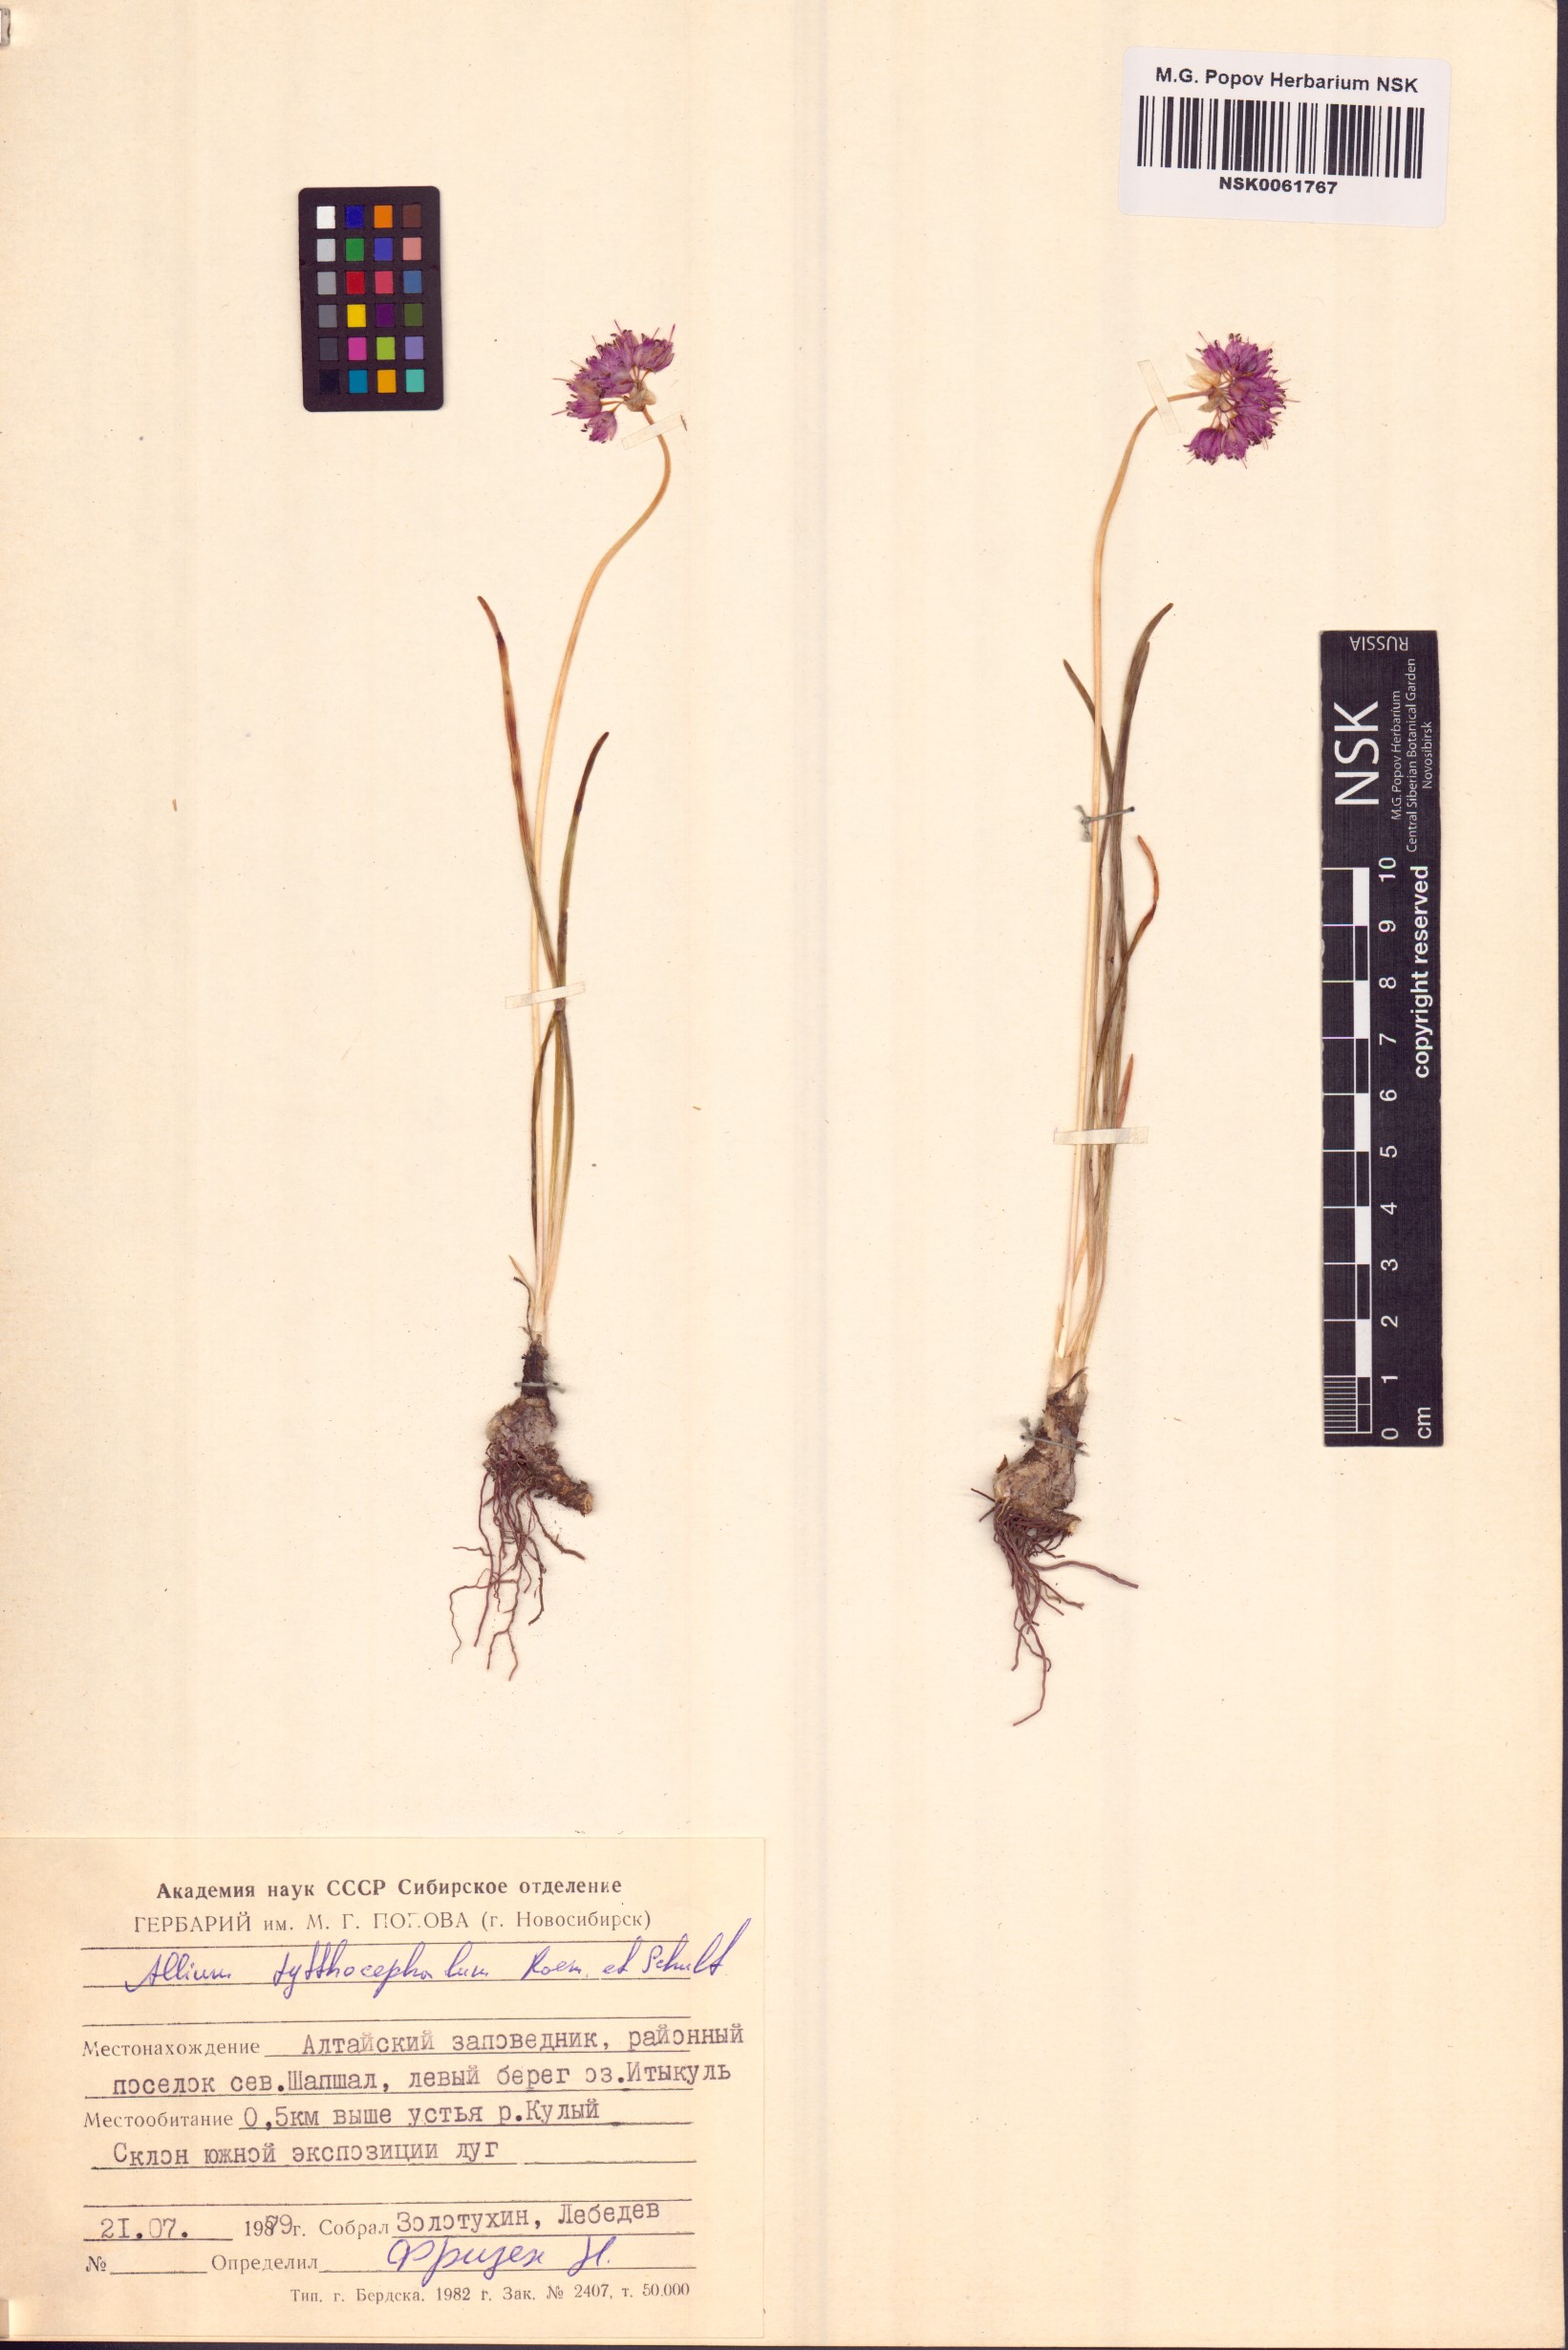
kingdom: Plantae
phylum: Tracheophyta
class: Liliopsida
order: Asparagales
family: Amaryllidaceae
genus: Allium
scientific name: Allium tytthocephalum
